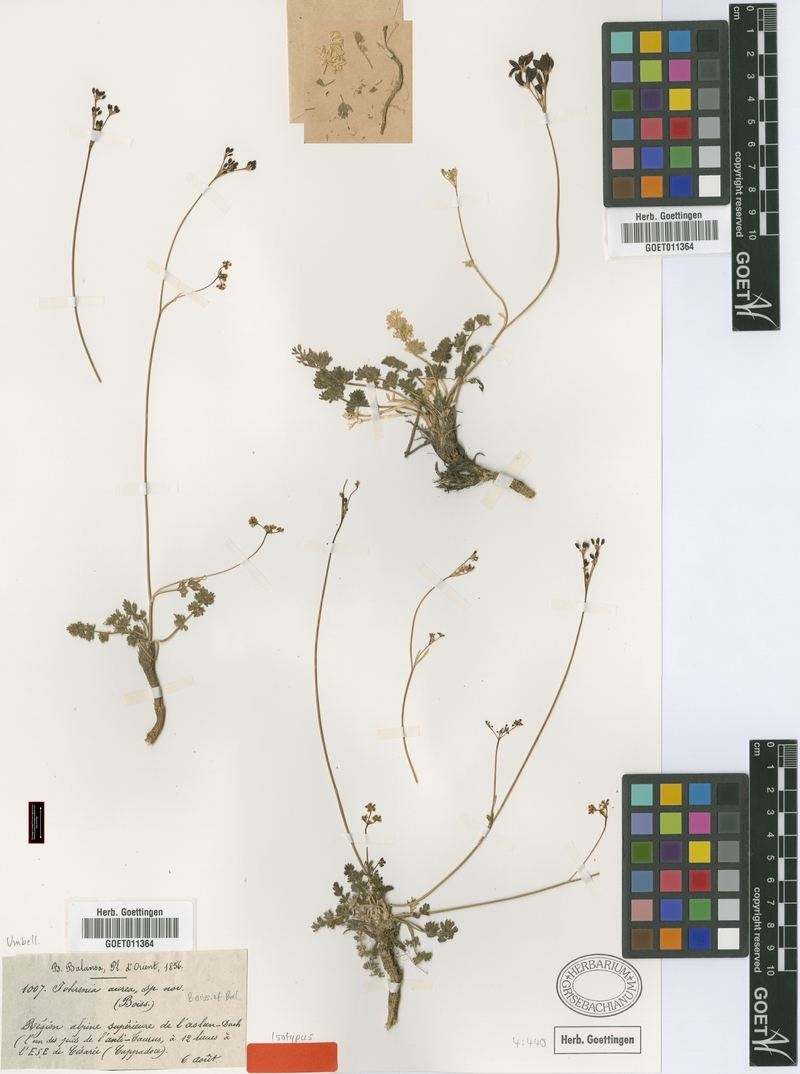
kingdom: Plantae
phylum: Tracheophyta
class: Magnoliopsida
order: Apiales
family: Apiaceae
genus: Dichoropetalum
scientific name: Dichoropetalum aureum
